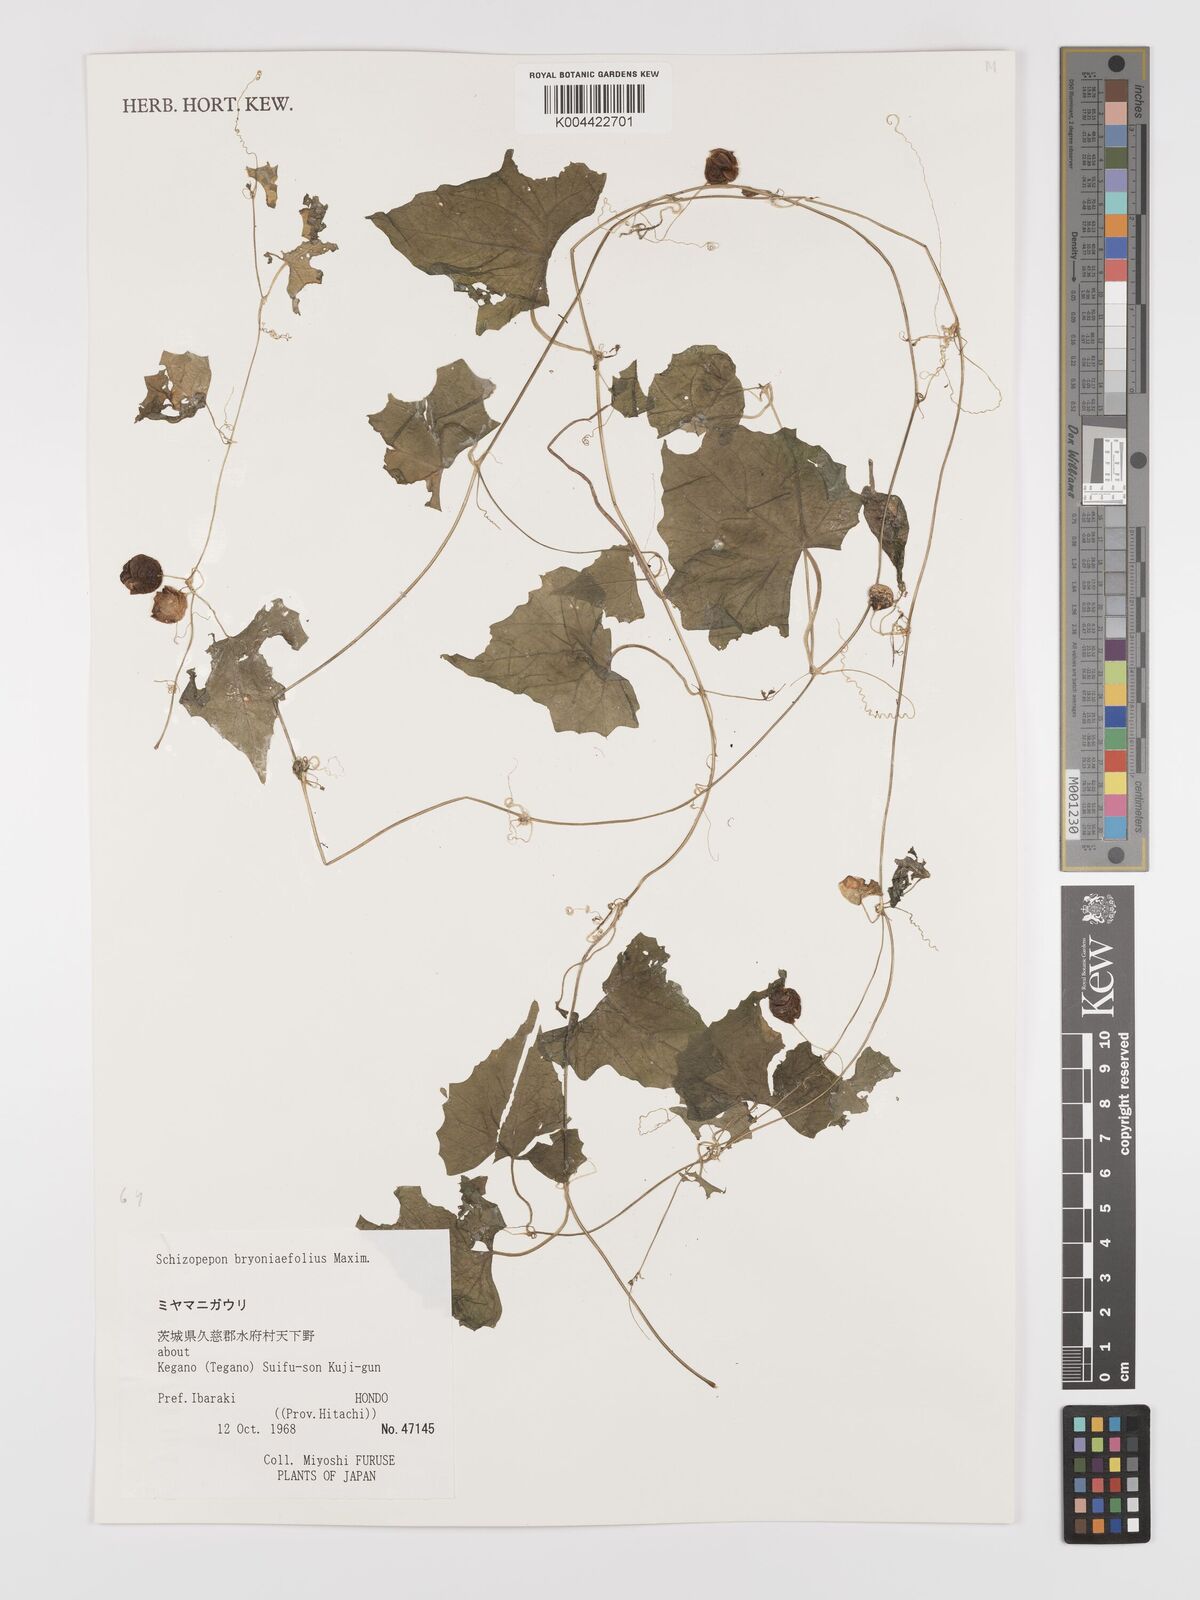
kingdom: Plantae
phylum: Tracheophyta
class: Magnoliopsida
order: Cucurbitales
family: Cucurbitaceae
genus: Schizopepon
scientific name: Schizopepon bryoniifolius
